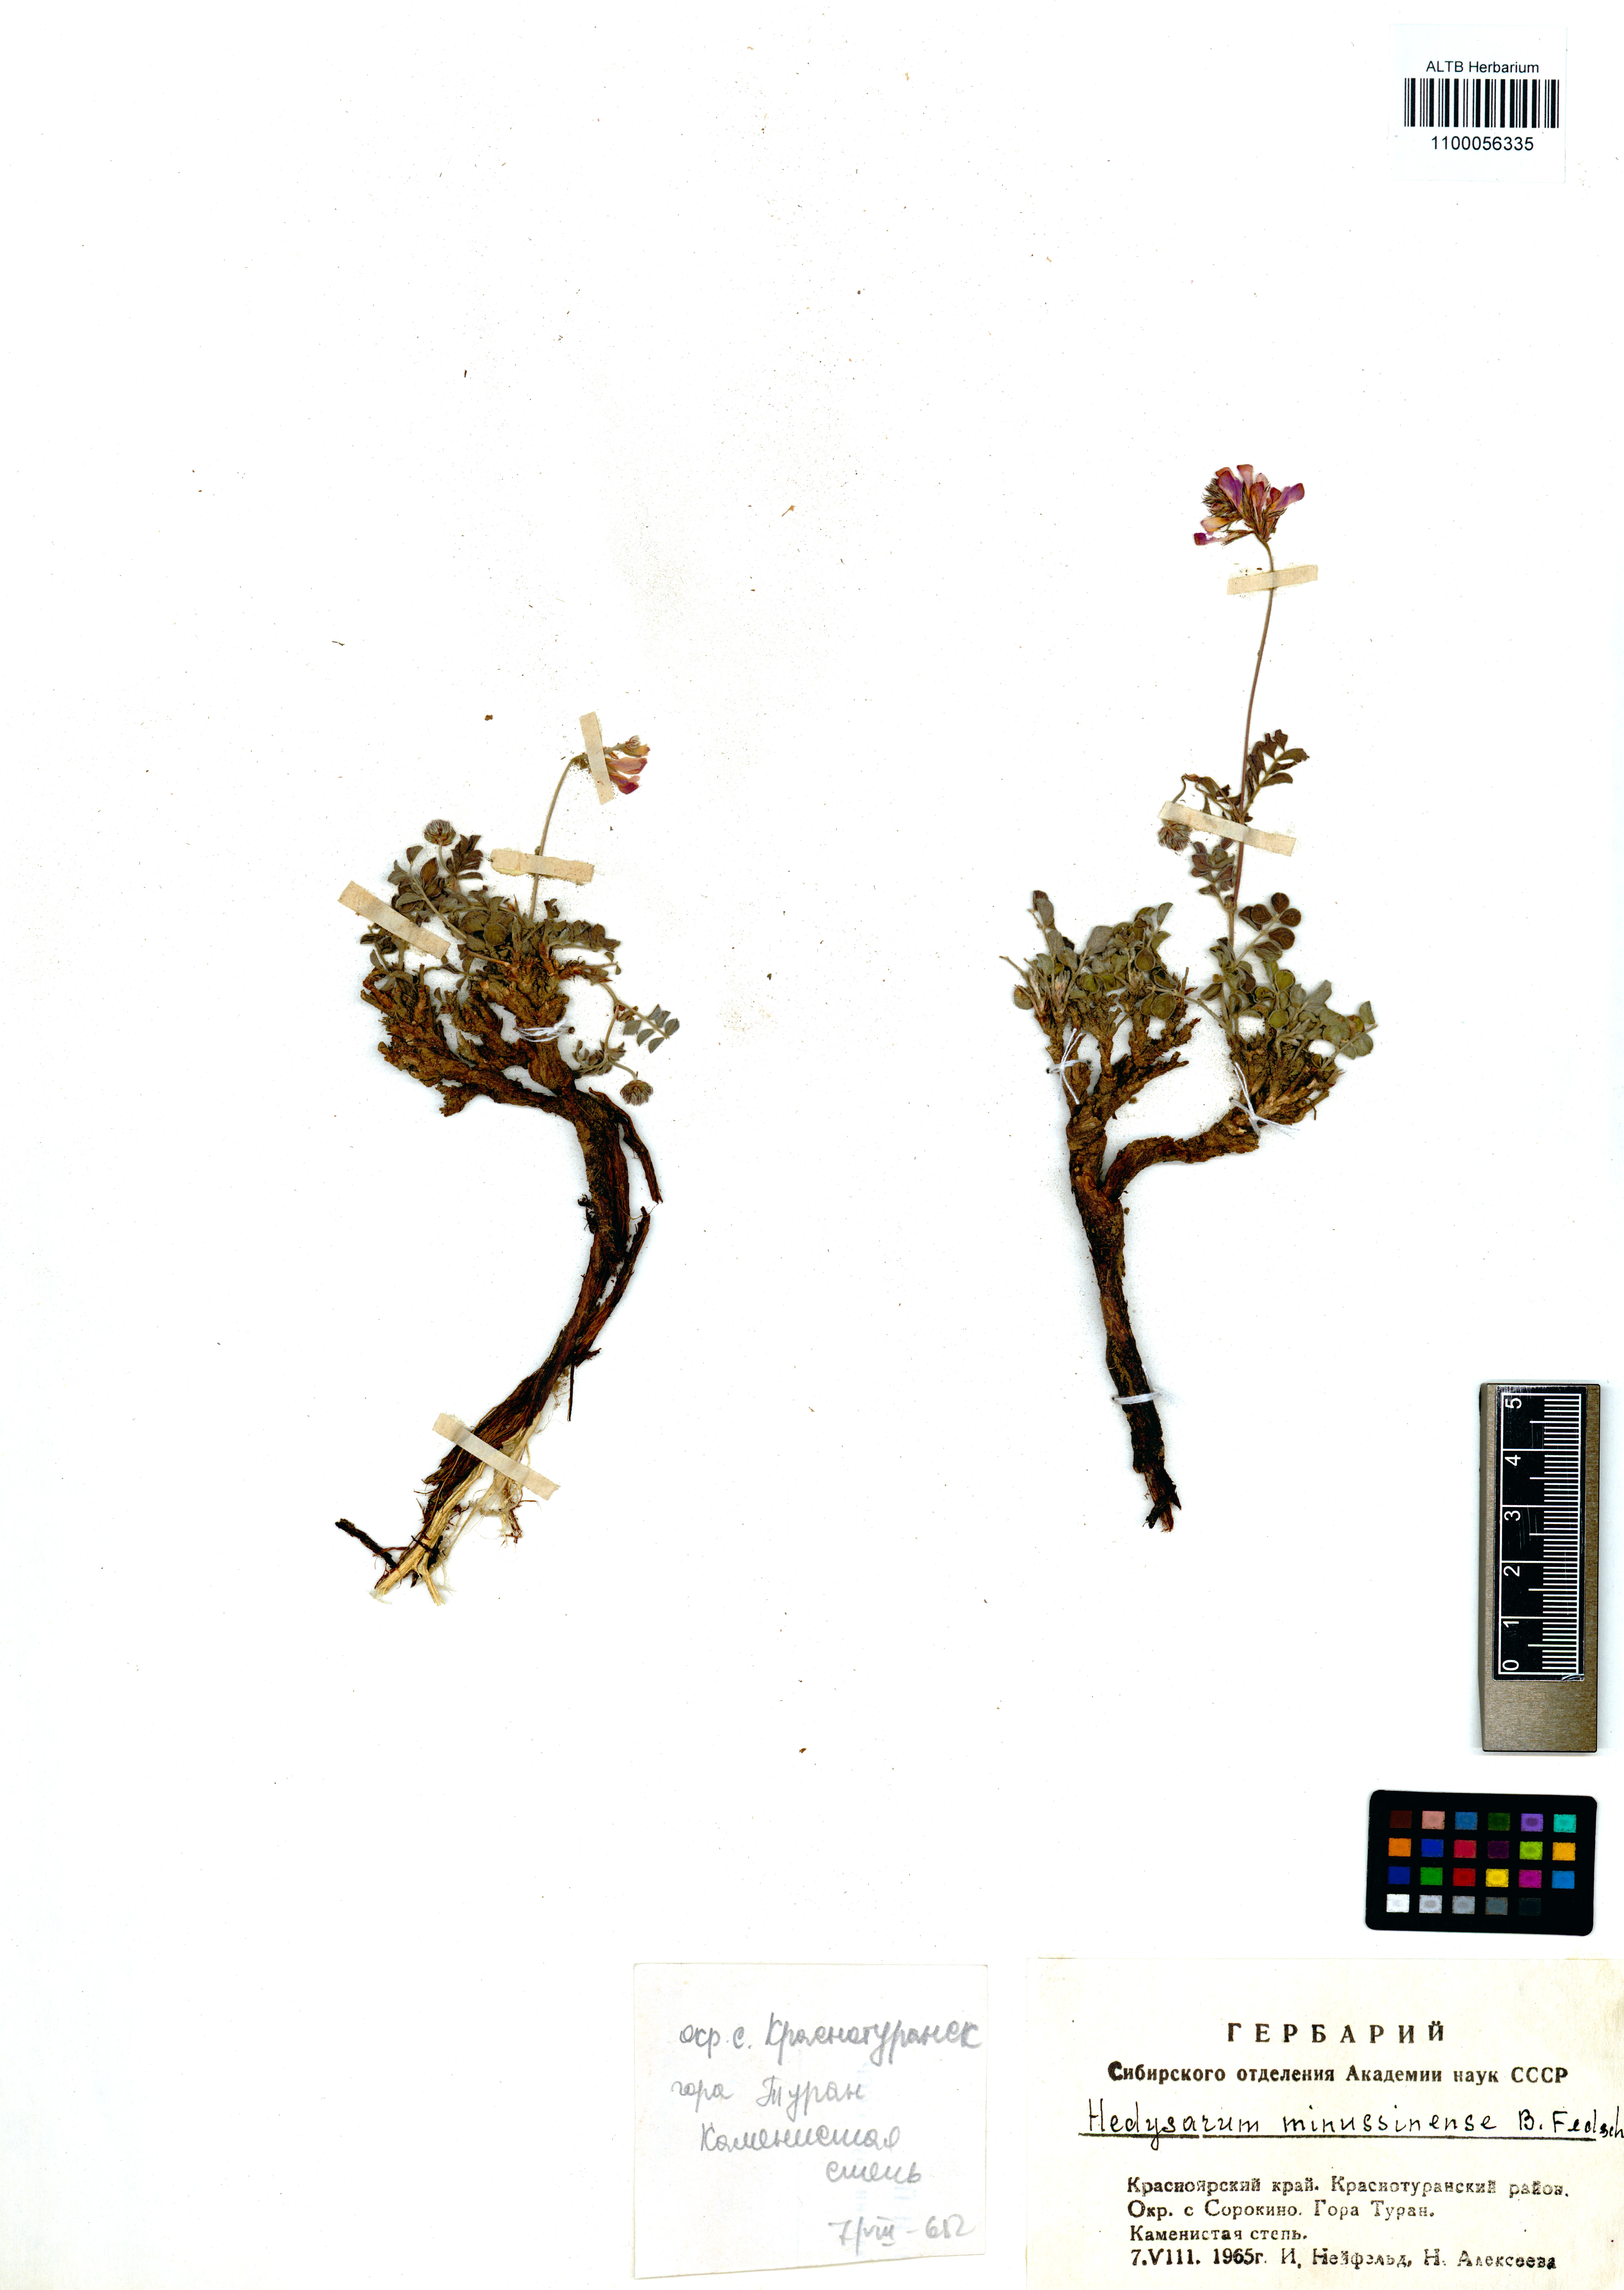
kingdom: Plantae
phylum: Tracheophyta
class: Magnoliopsida
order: Fabales
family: Fabaceae
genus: Hedysarum
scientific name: Hedysarum minussinense
